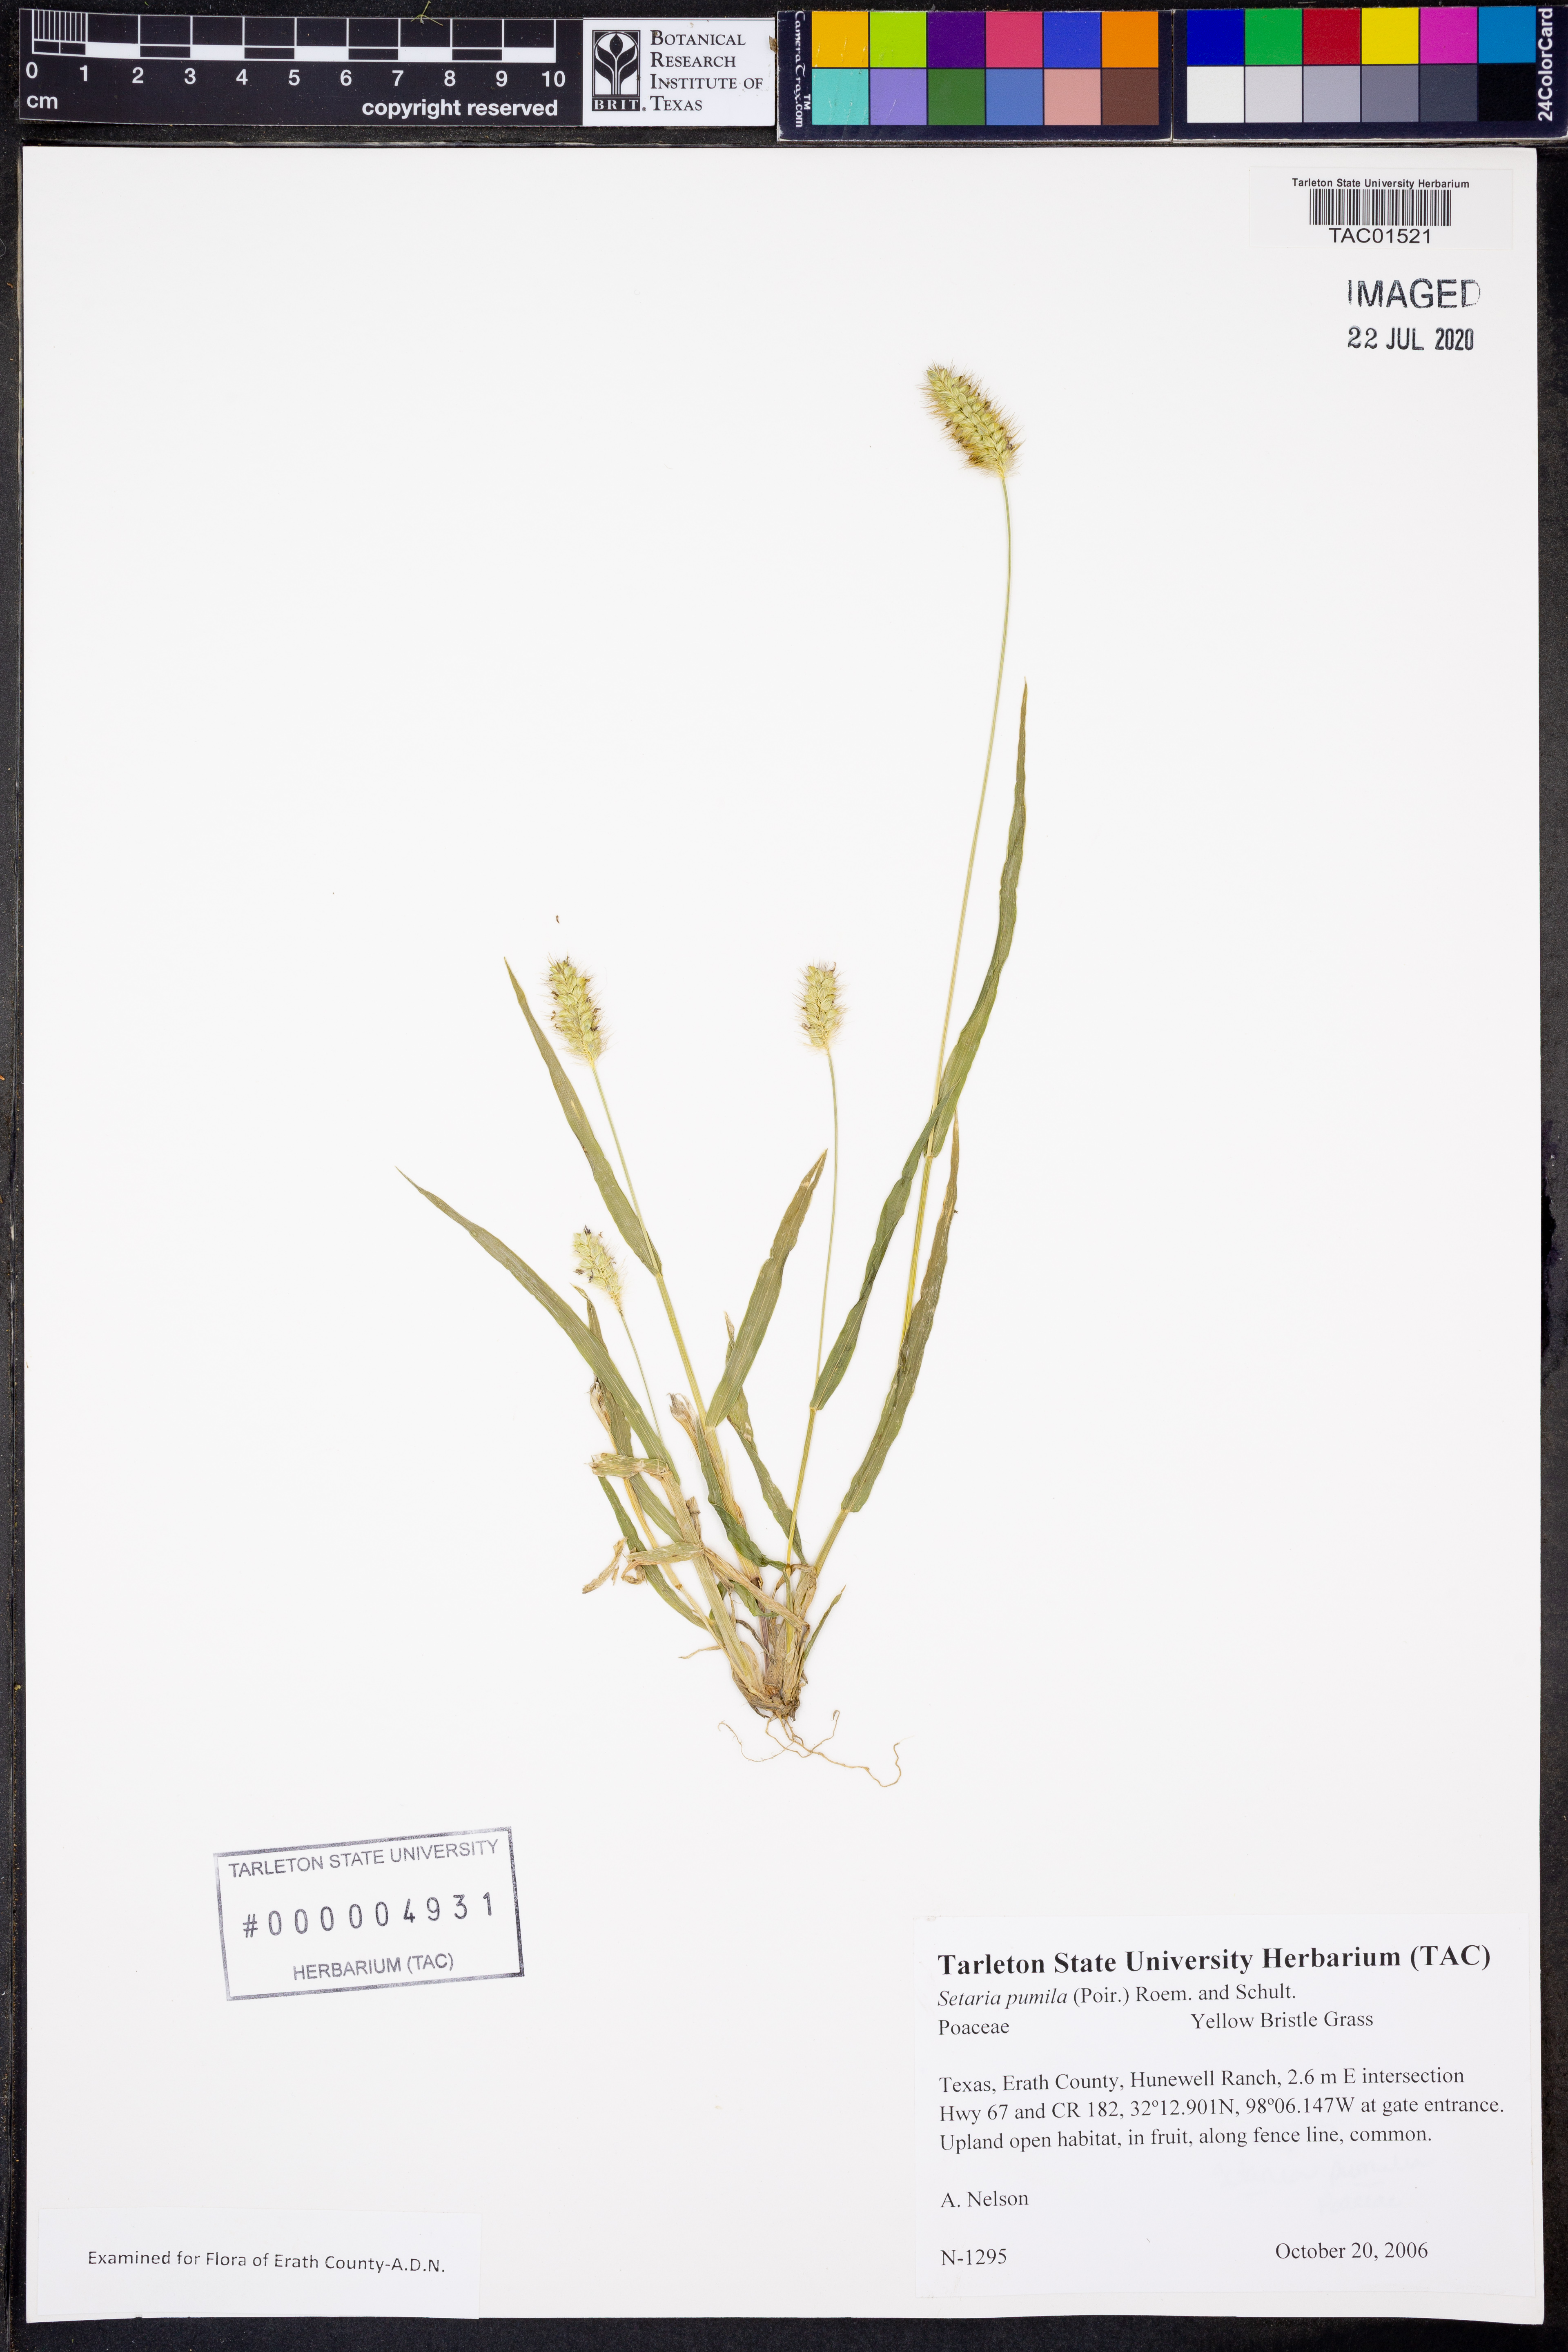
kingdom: Plantae
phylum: Tracheophyta
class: Liliopsida
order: Poales
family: Poaceae
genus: Setaria
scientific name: Setaria pumila
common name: Yellow bristle-grass
